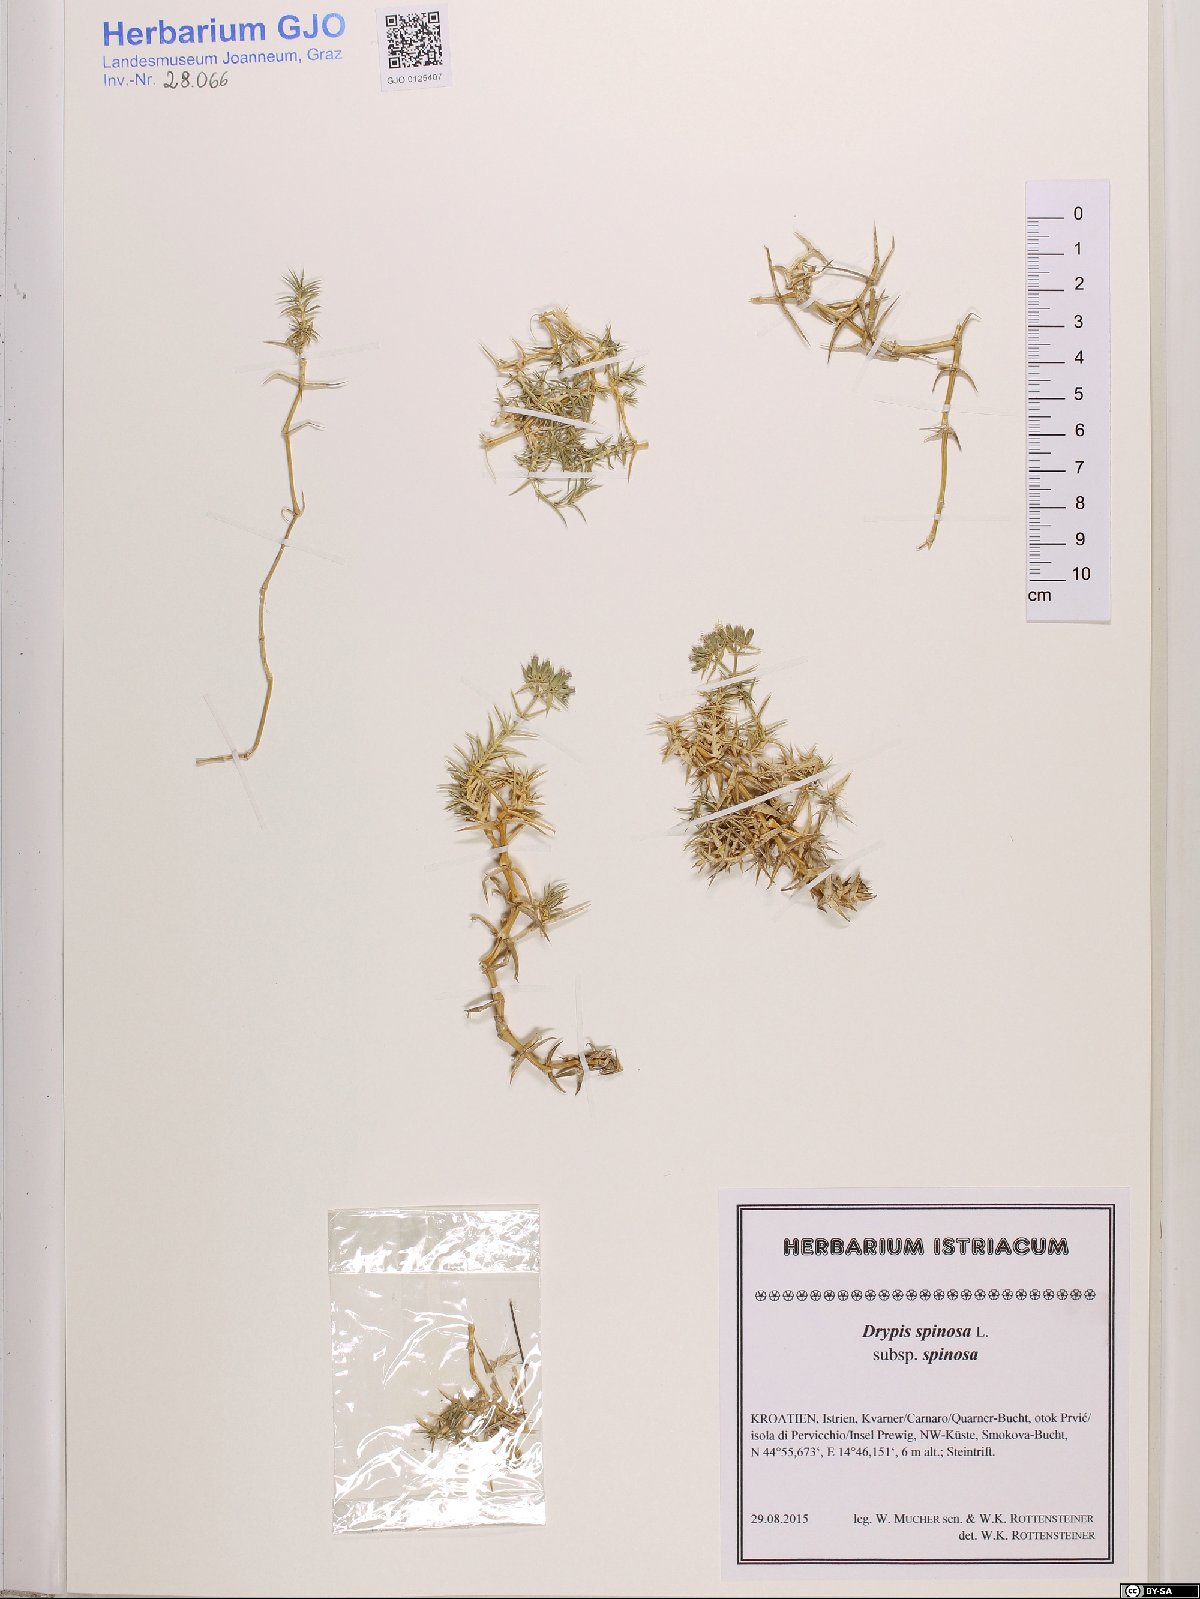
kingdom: Plantae
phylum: Tracheophyta
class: Magnoliopsida
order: Caryophyllales
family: Caryophyllaceae
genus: Drypis
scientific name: Drypis spinosa
